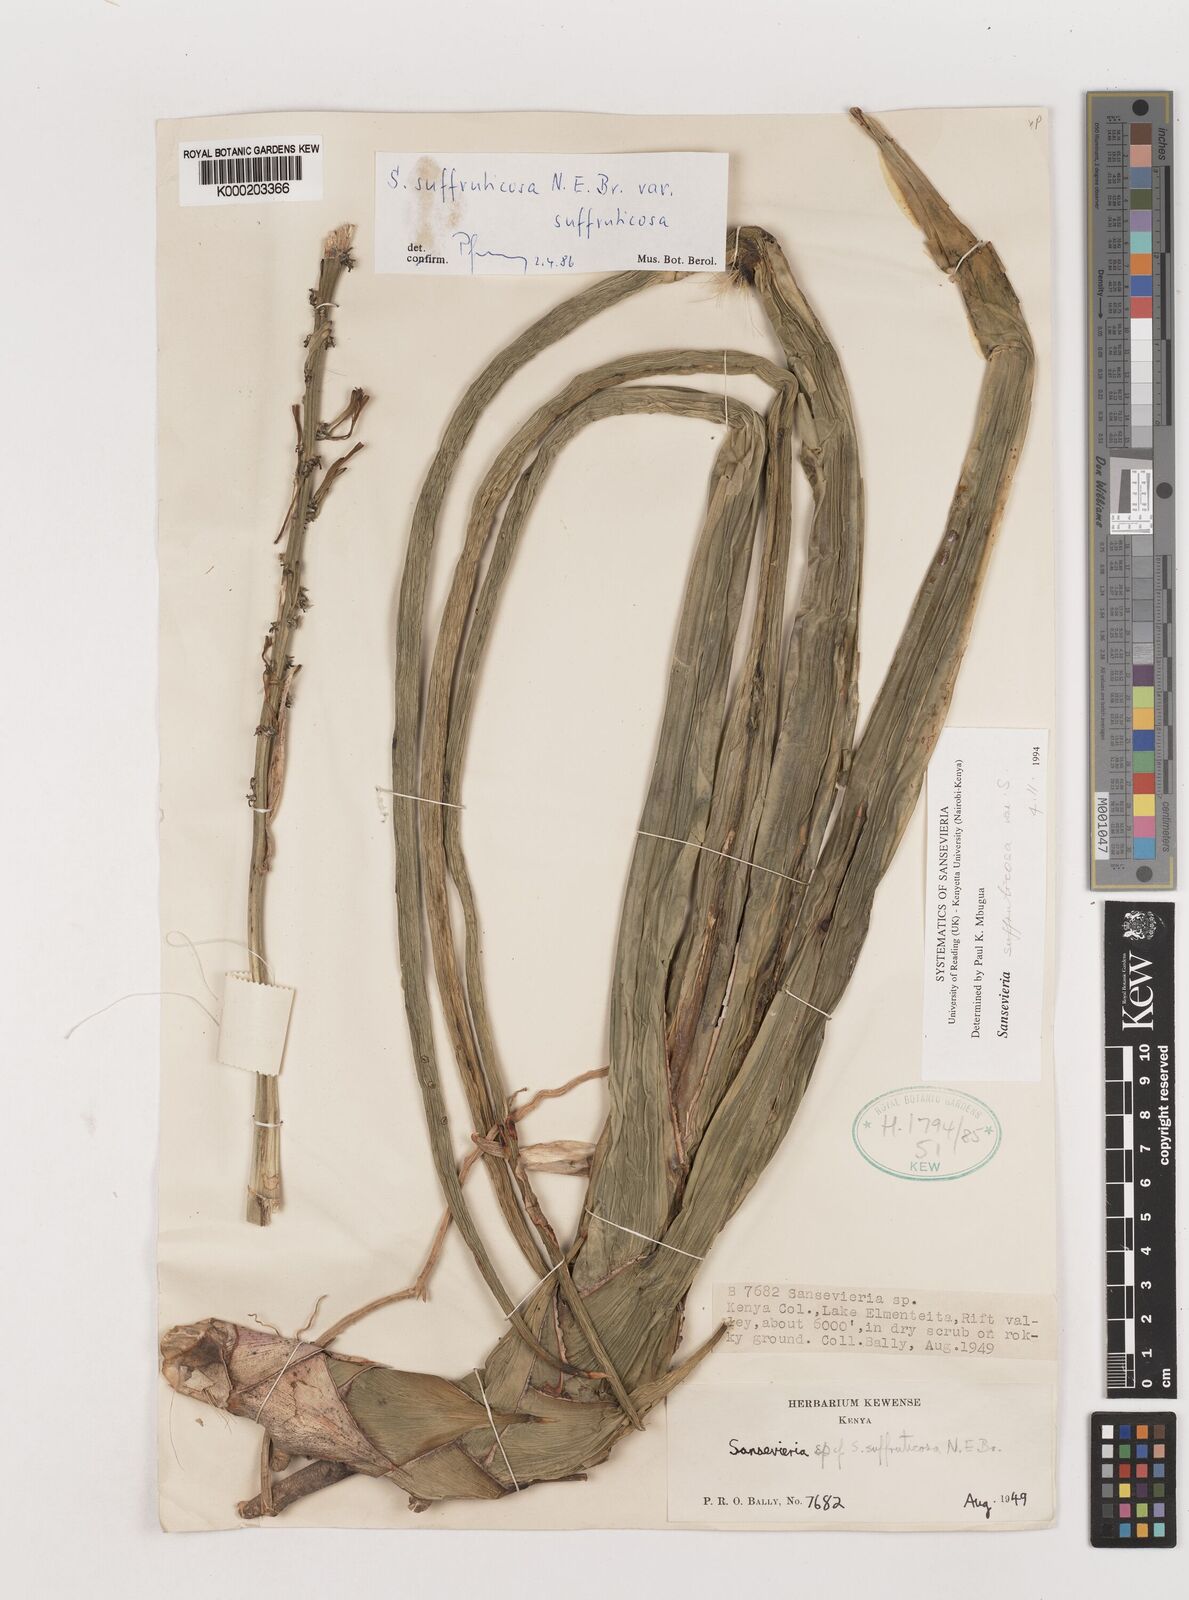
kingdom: Plantae
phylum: Tracheophyta
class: Liliopsida
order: Asparagales
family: Asparagaceae
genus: Dracaena
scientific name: Dracaena suffruticosa
